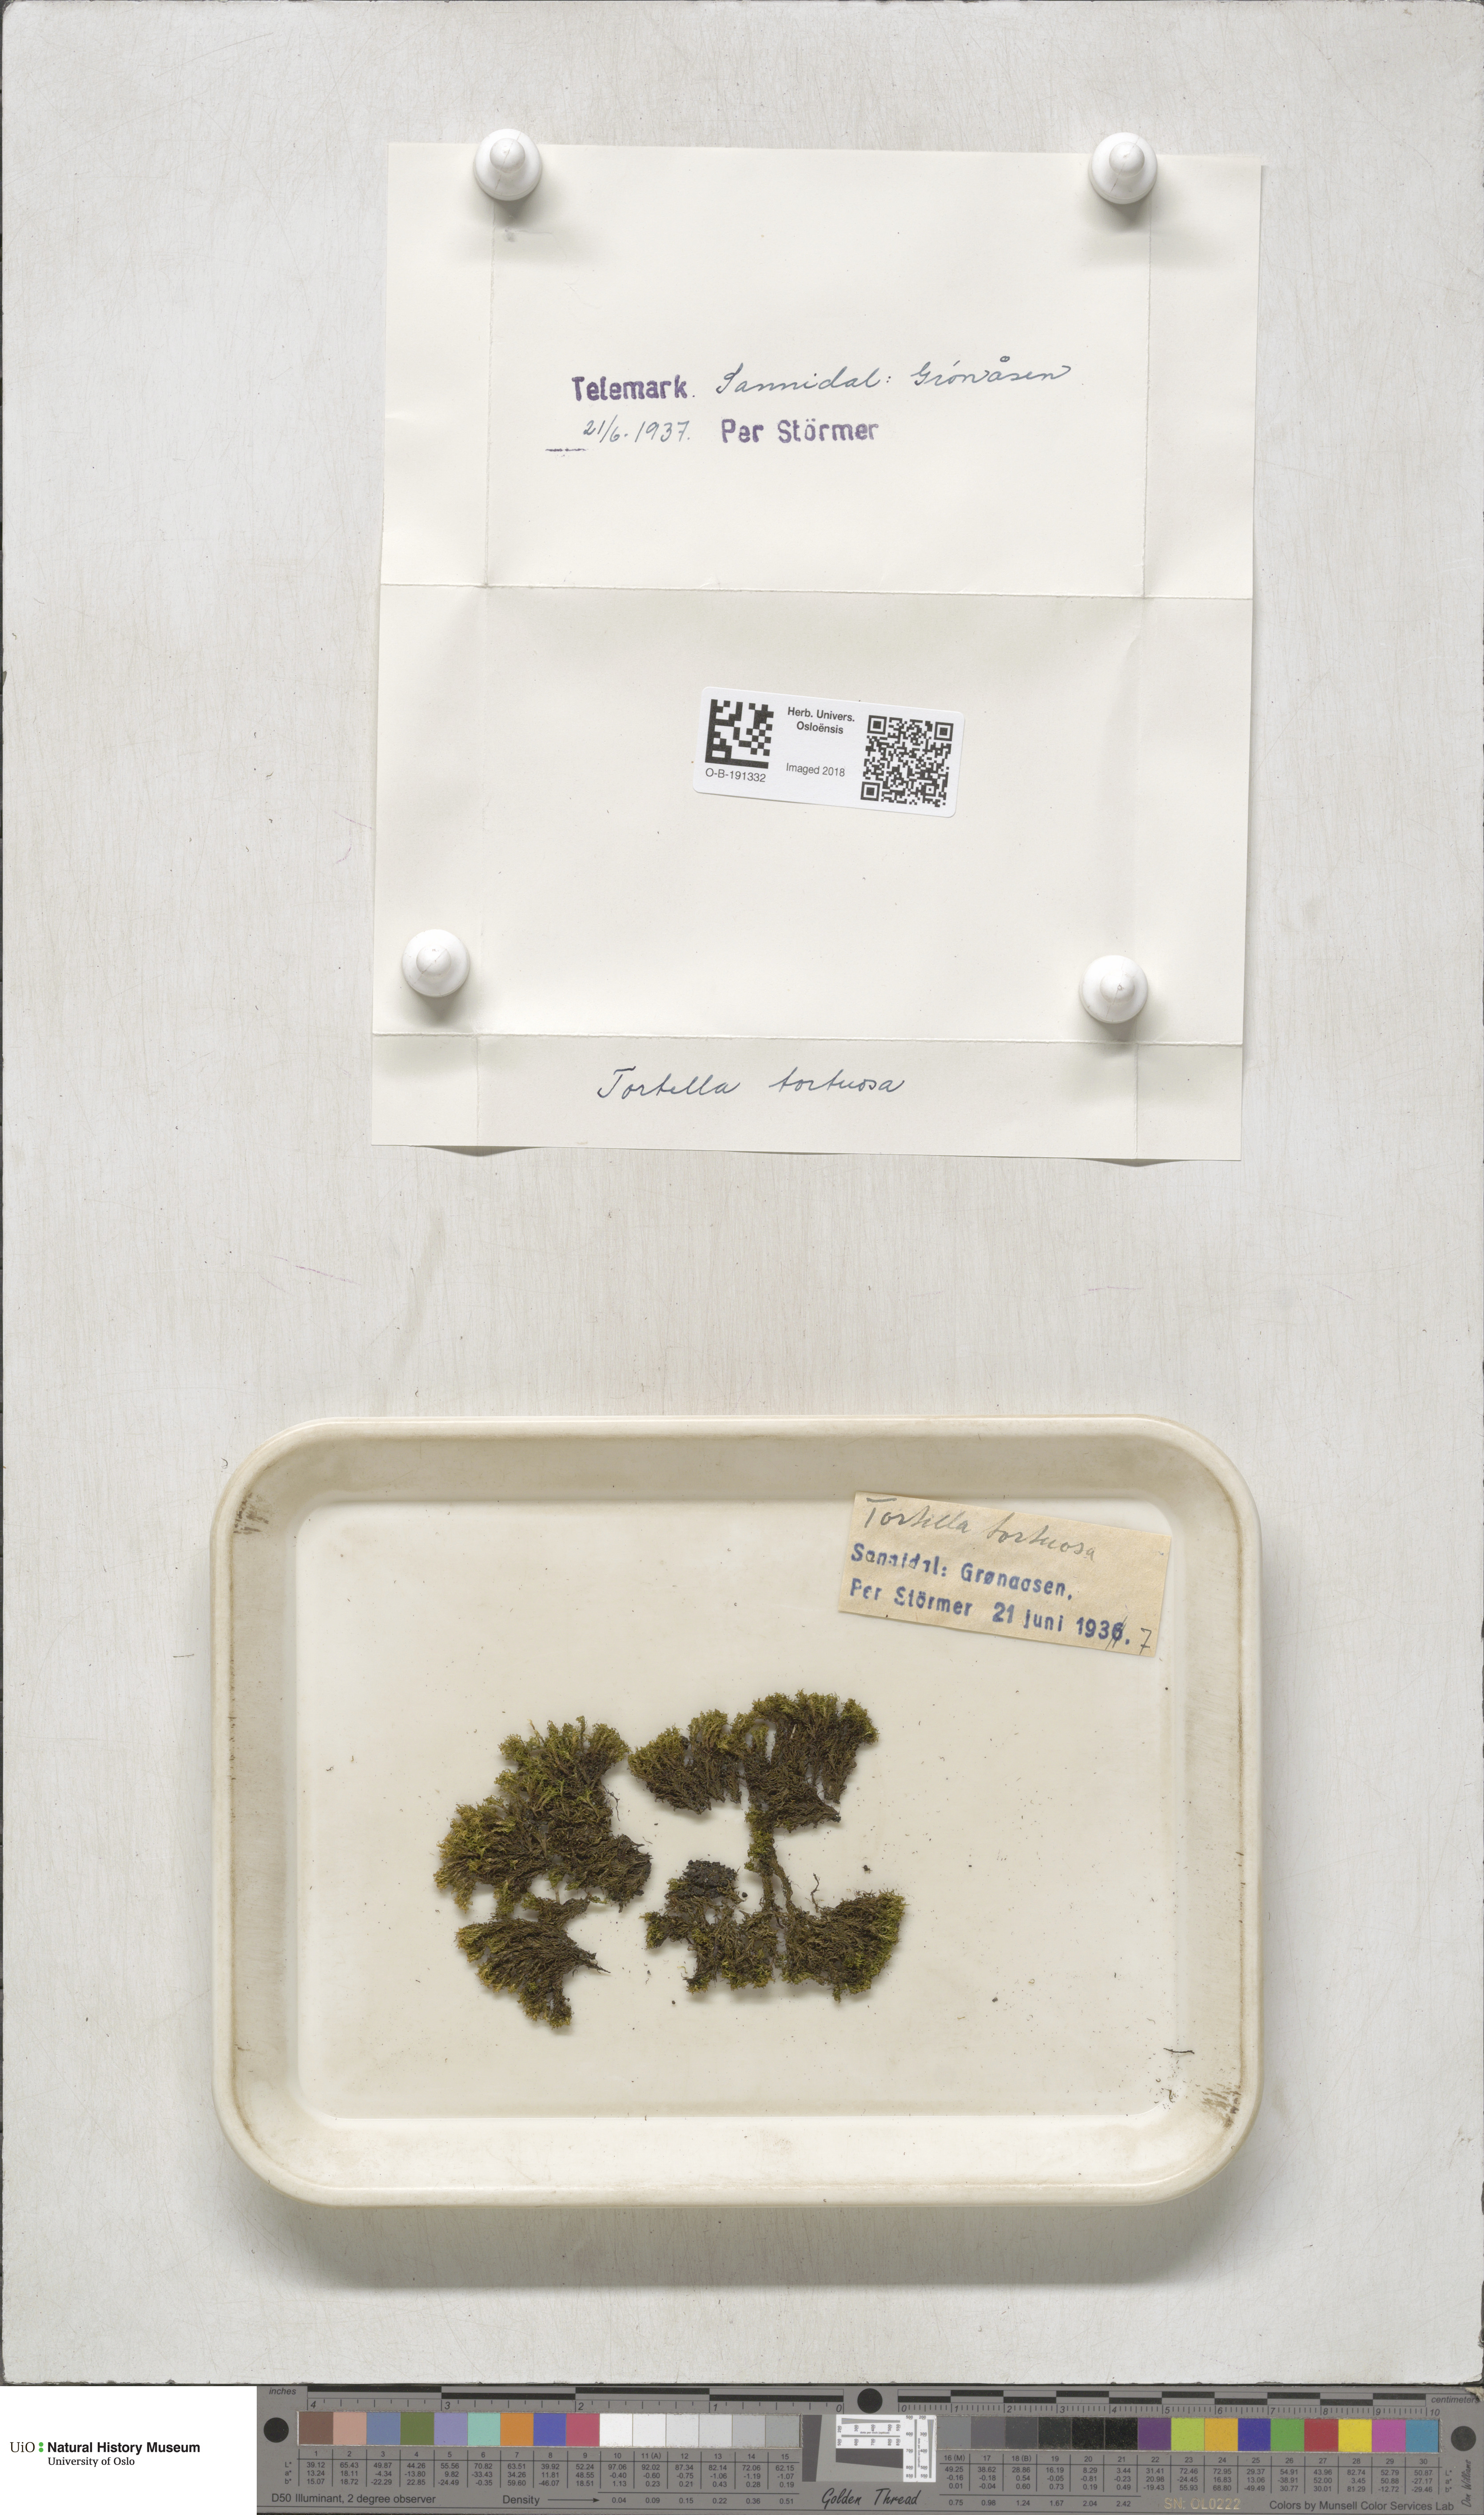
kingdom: Plantae
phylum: Bryophyta
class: Bryopsida
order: Pottiales
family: Pottiaceae
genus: Tortella
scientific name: Tortella tortuosa
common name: Frizzled crisp moss
